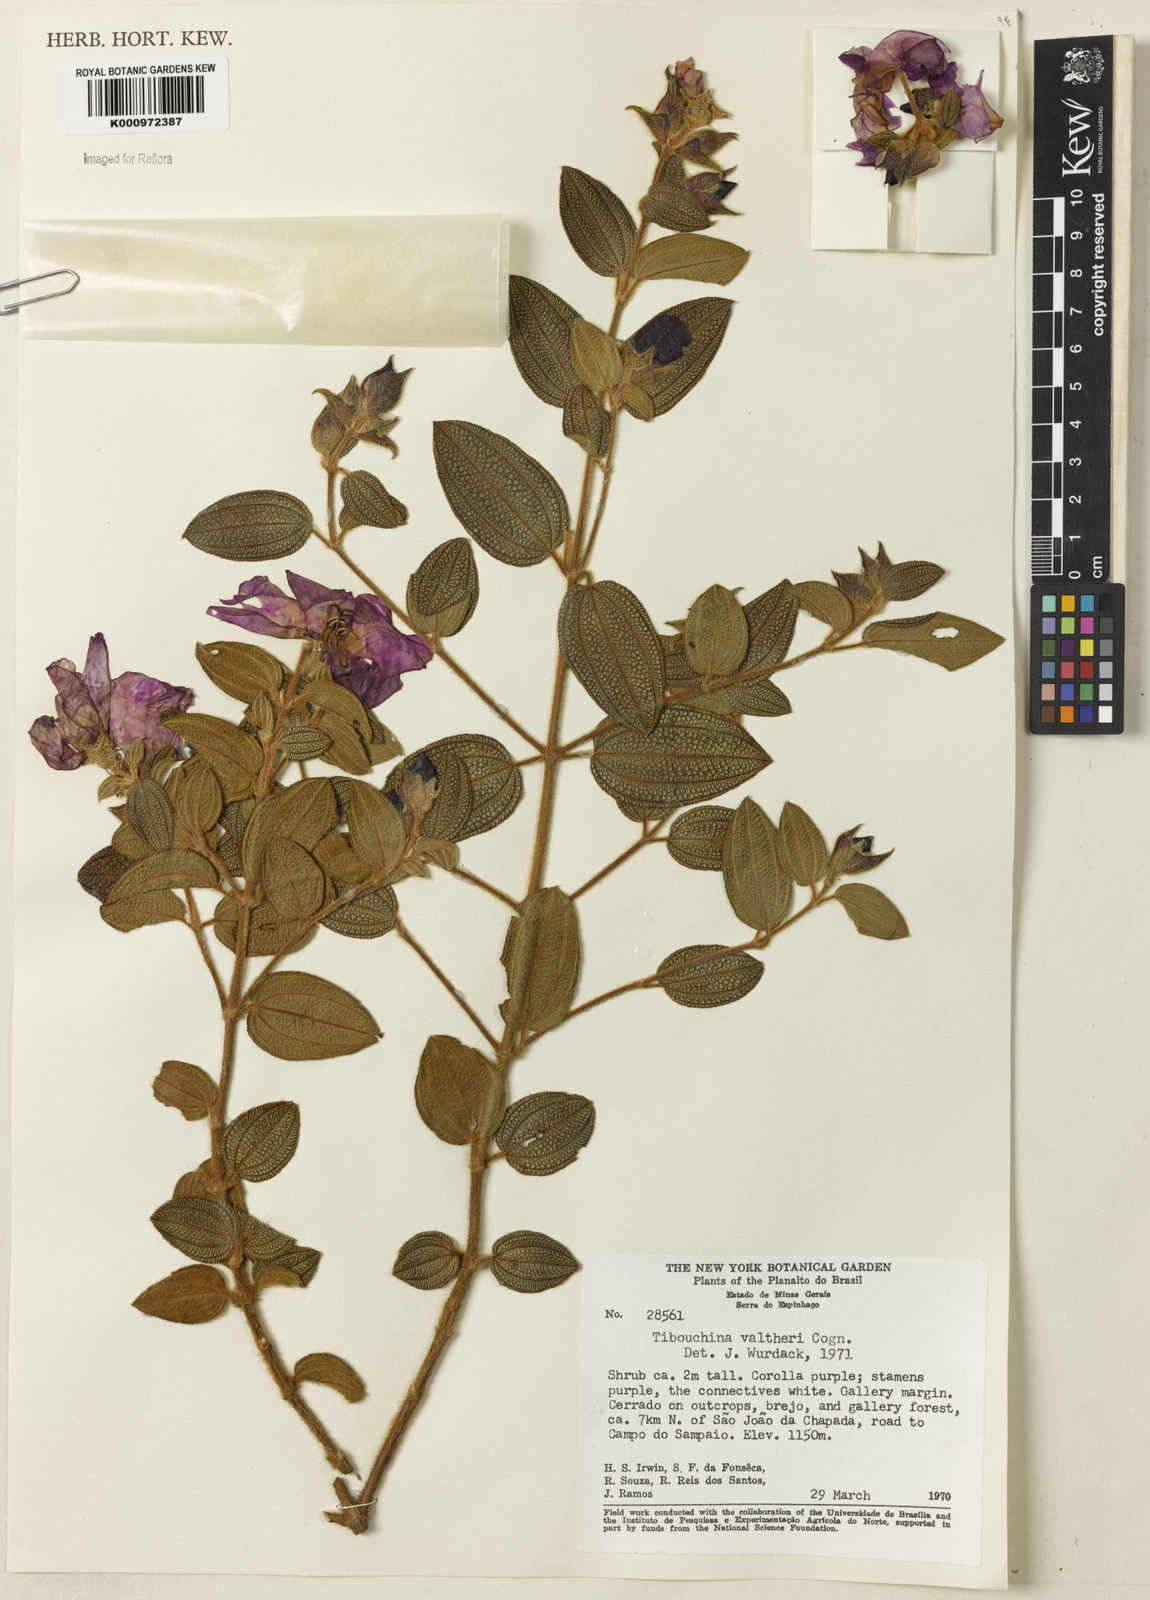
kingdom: Plantae
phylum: Tracheophyta
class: Magnoliopsida
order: Myrtales
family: Melastomataceae
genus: Pleroma
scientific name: Pleroma aemula
